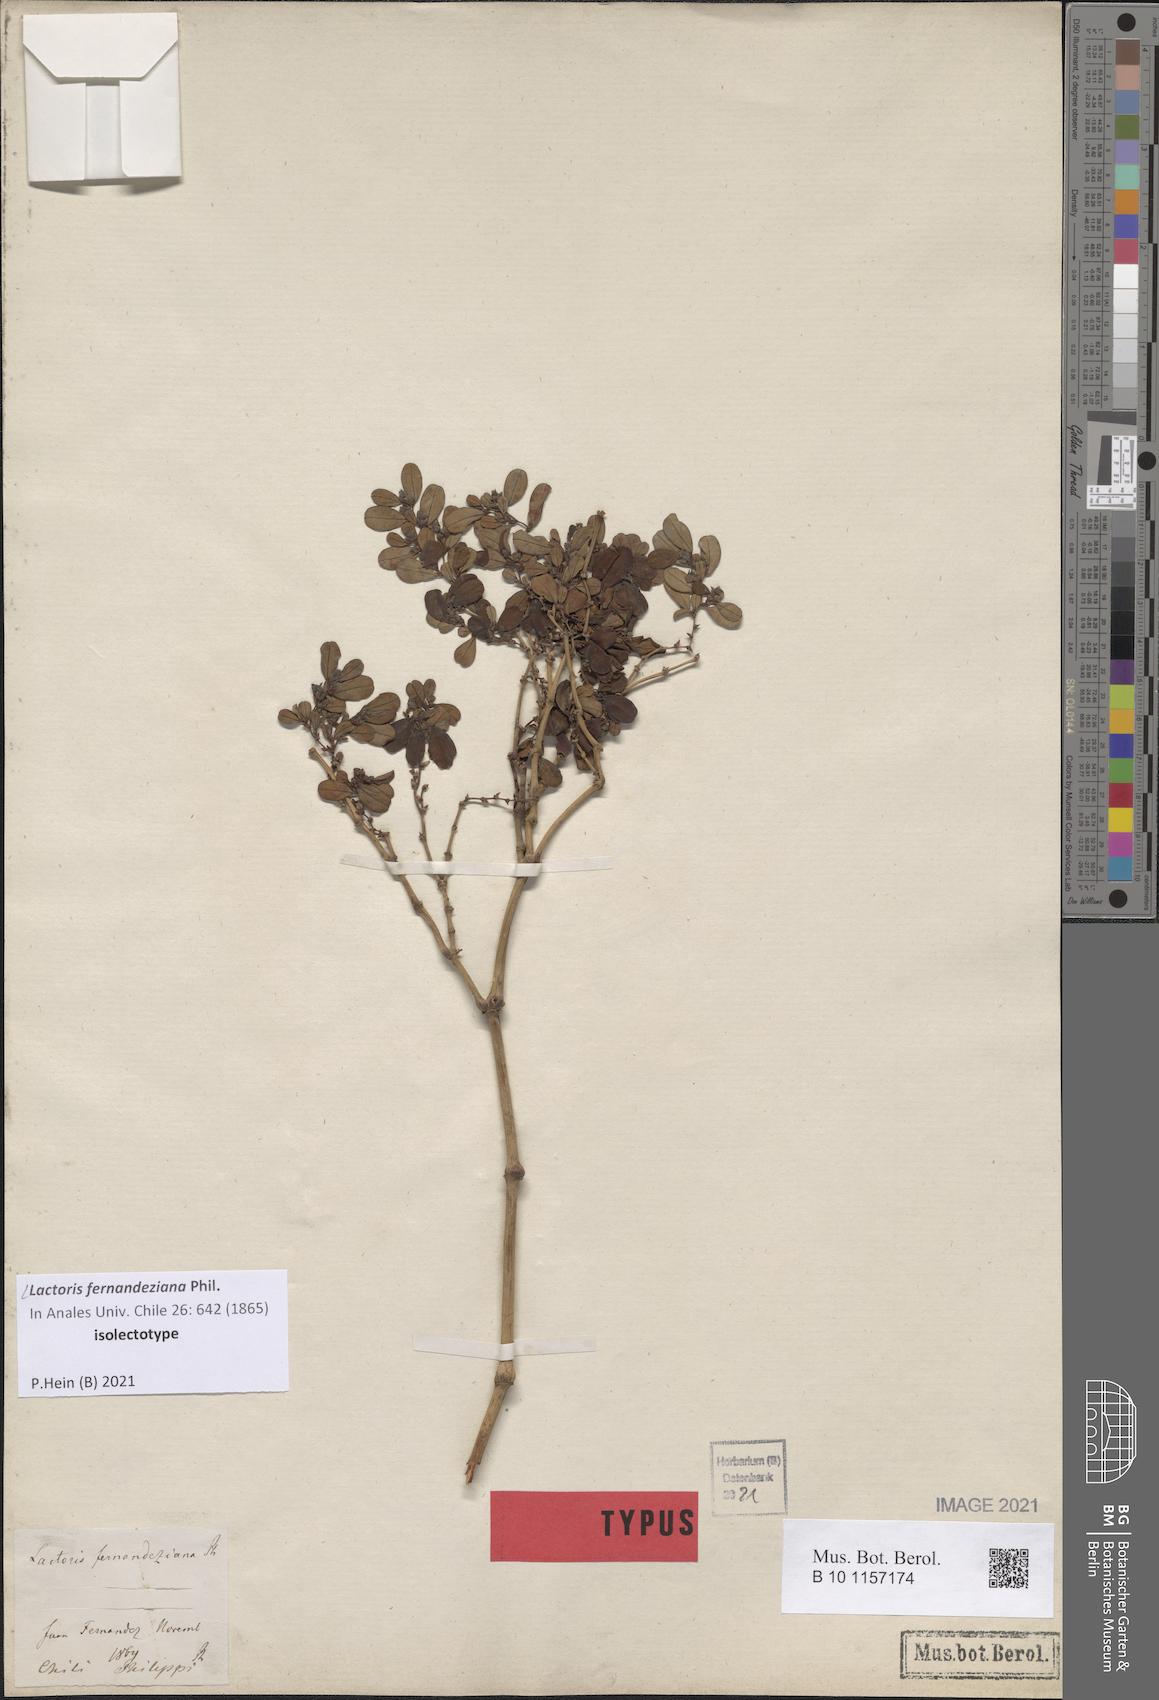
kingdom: Plantae
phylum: Tracheophyta
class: Magnoliopsida
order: Piperales
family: Aristolochiaceae
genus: Lactoris
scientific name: Lactoris fernandeziana
